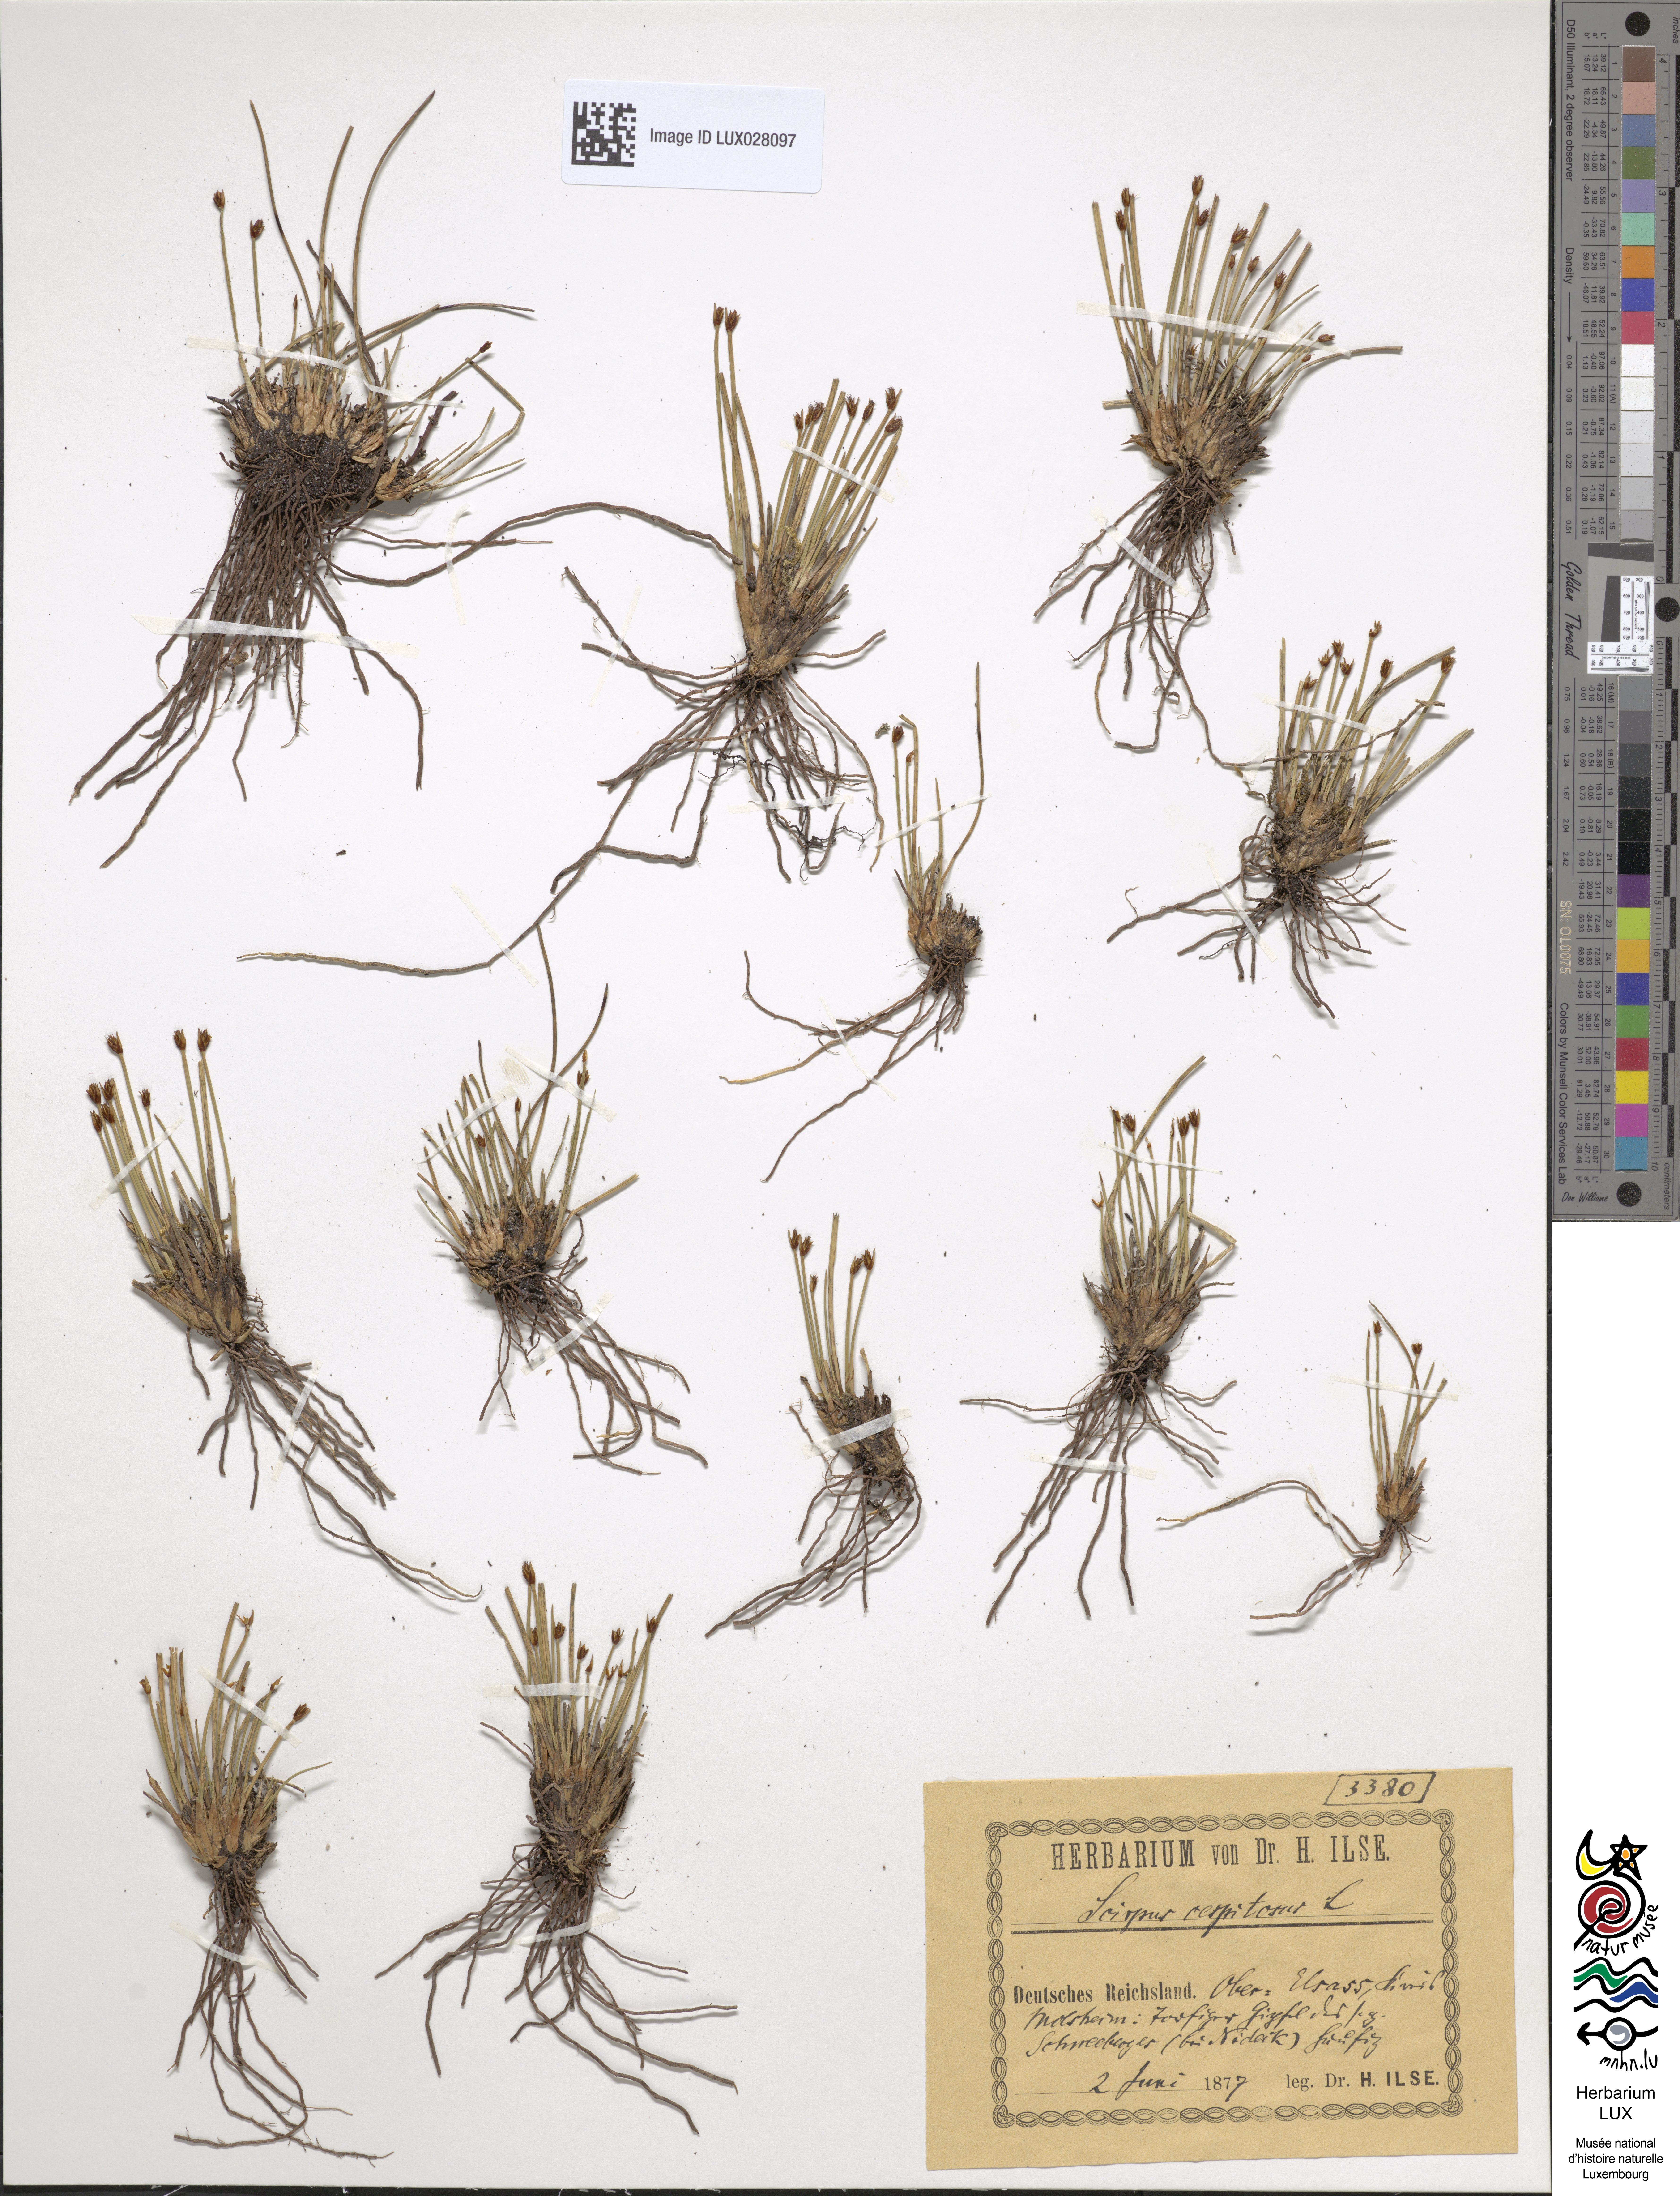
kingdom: Plantae
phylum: Tracheophyta
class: Liliopsida
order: Poales
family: Cyperaceae
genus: Trichophorum
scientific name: Trichophorum cespitosum
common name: Cespitose bulrush
